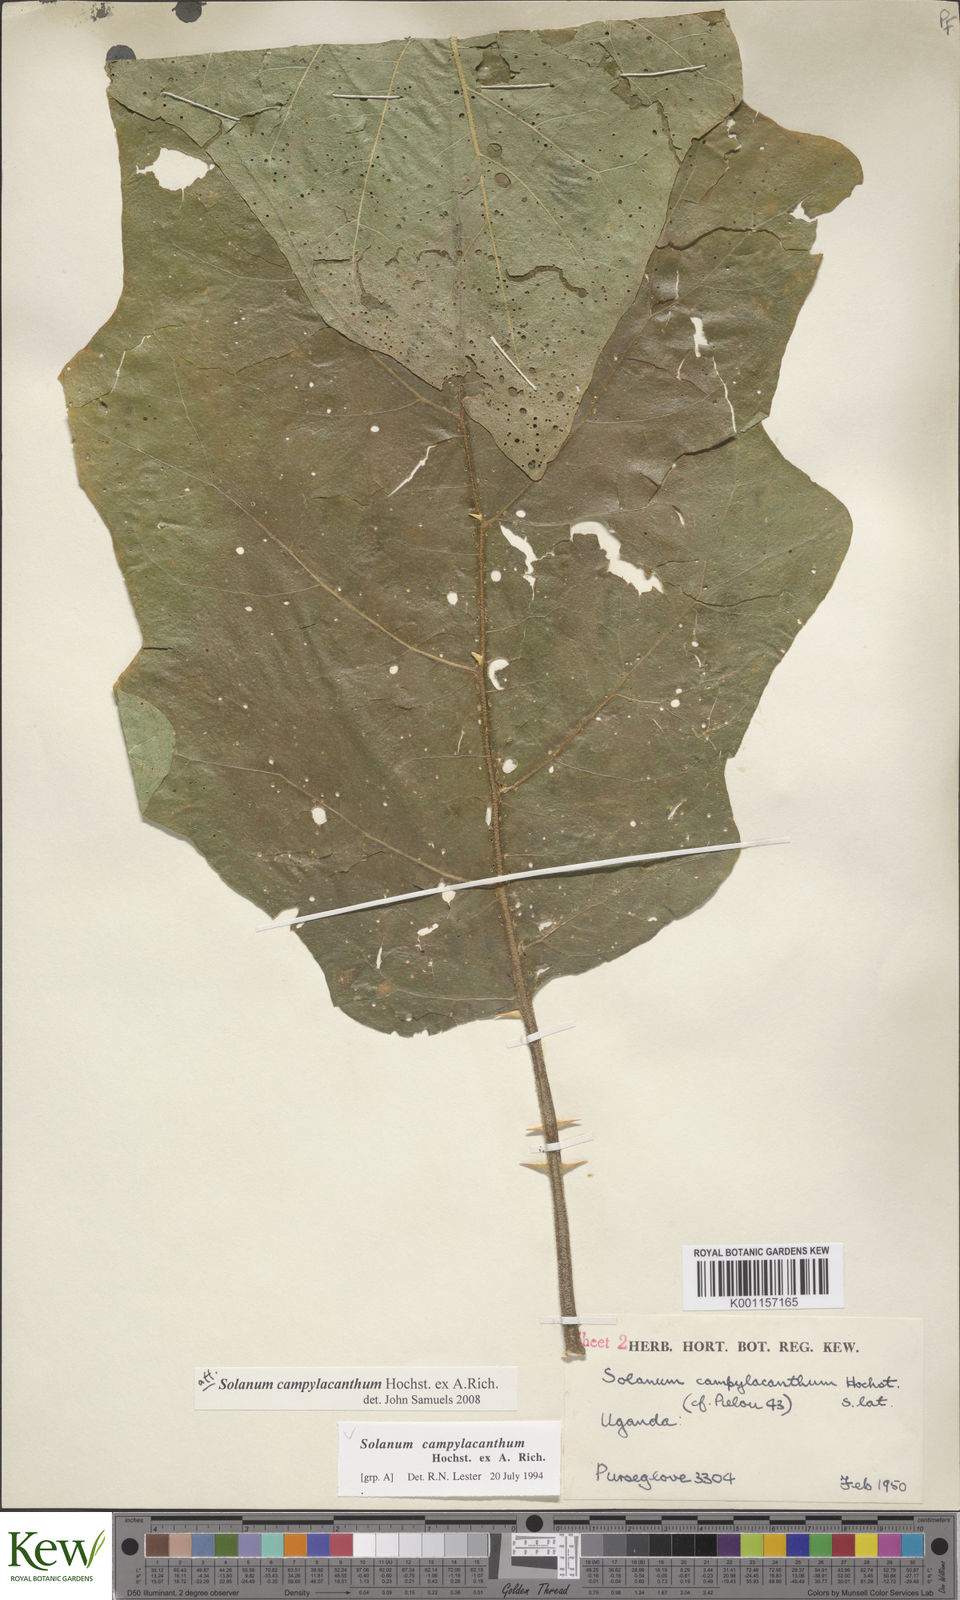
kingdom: Plantae
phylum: Tracheophyta
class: Magnoliopsida
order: Solanales
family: Solanaceae
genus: Solanum
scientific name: Solanum campylacanthum
